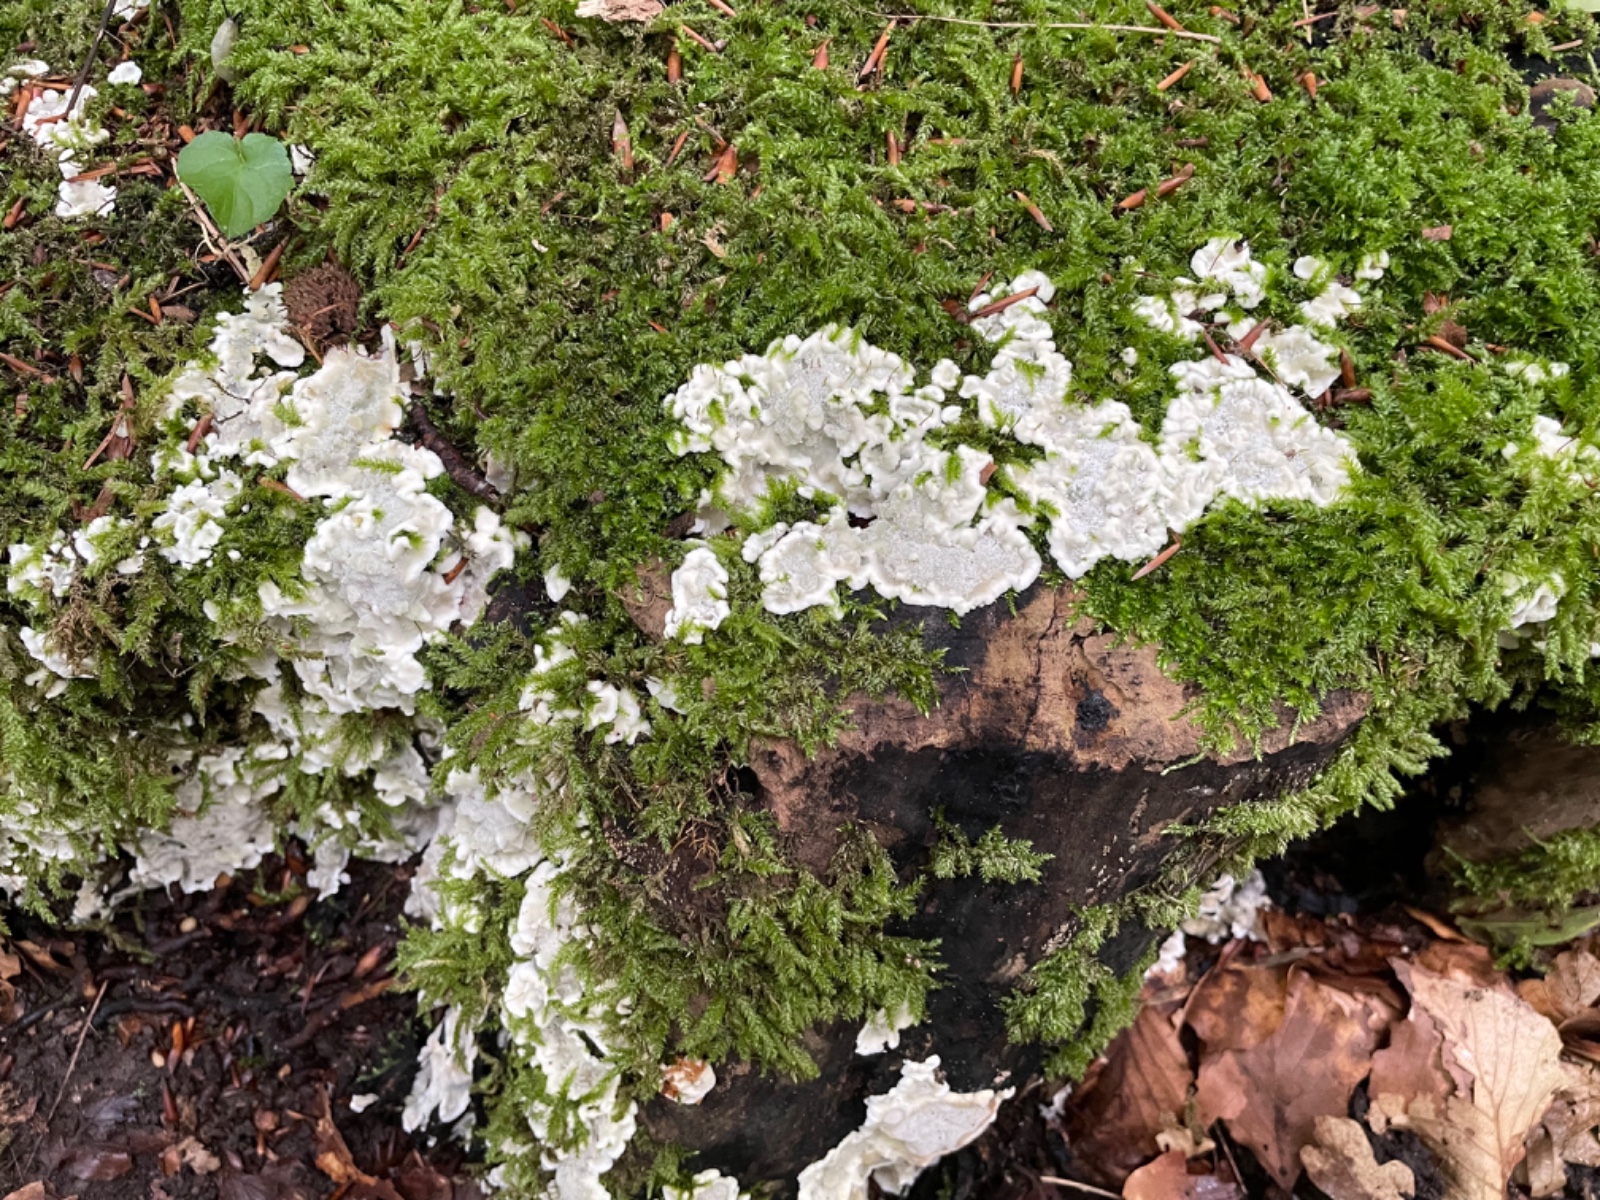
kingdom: Fungi
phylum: Basidiomycota
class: Agaricomycetes
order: Polyporales
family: Meruliaceae
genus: Physisporinus
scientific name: Physisporinus vitreus
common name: mastesvamp
